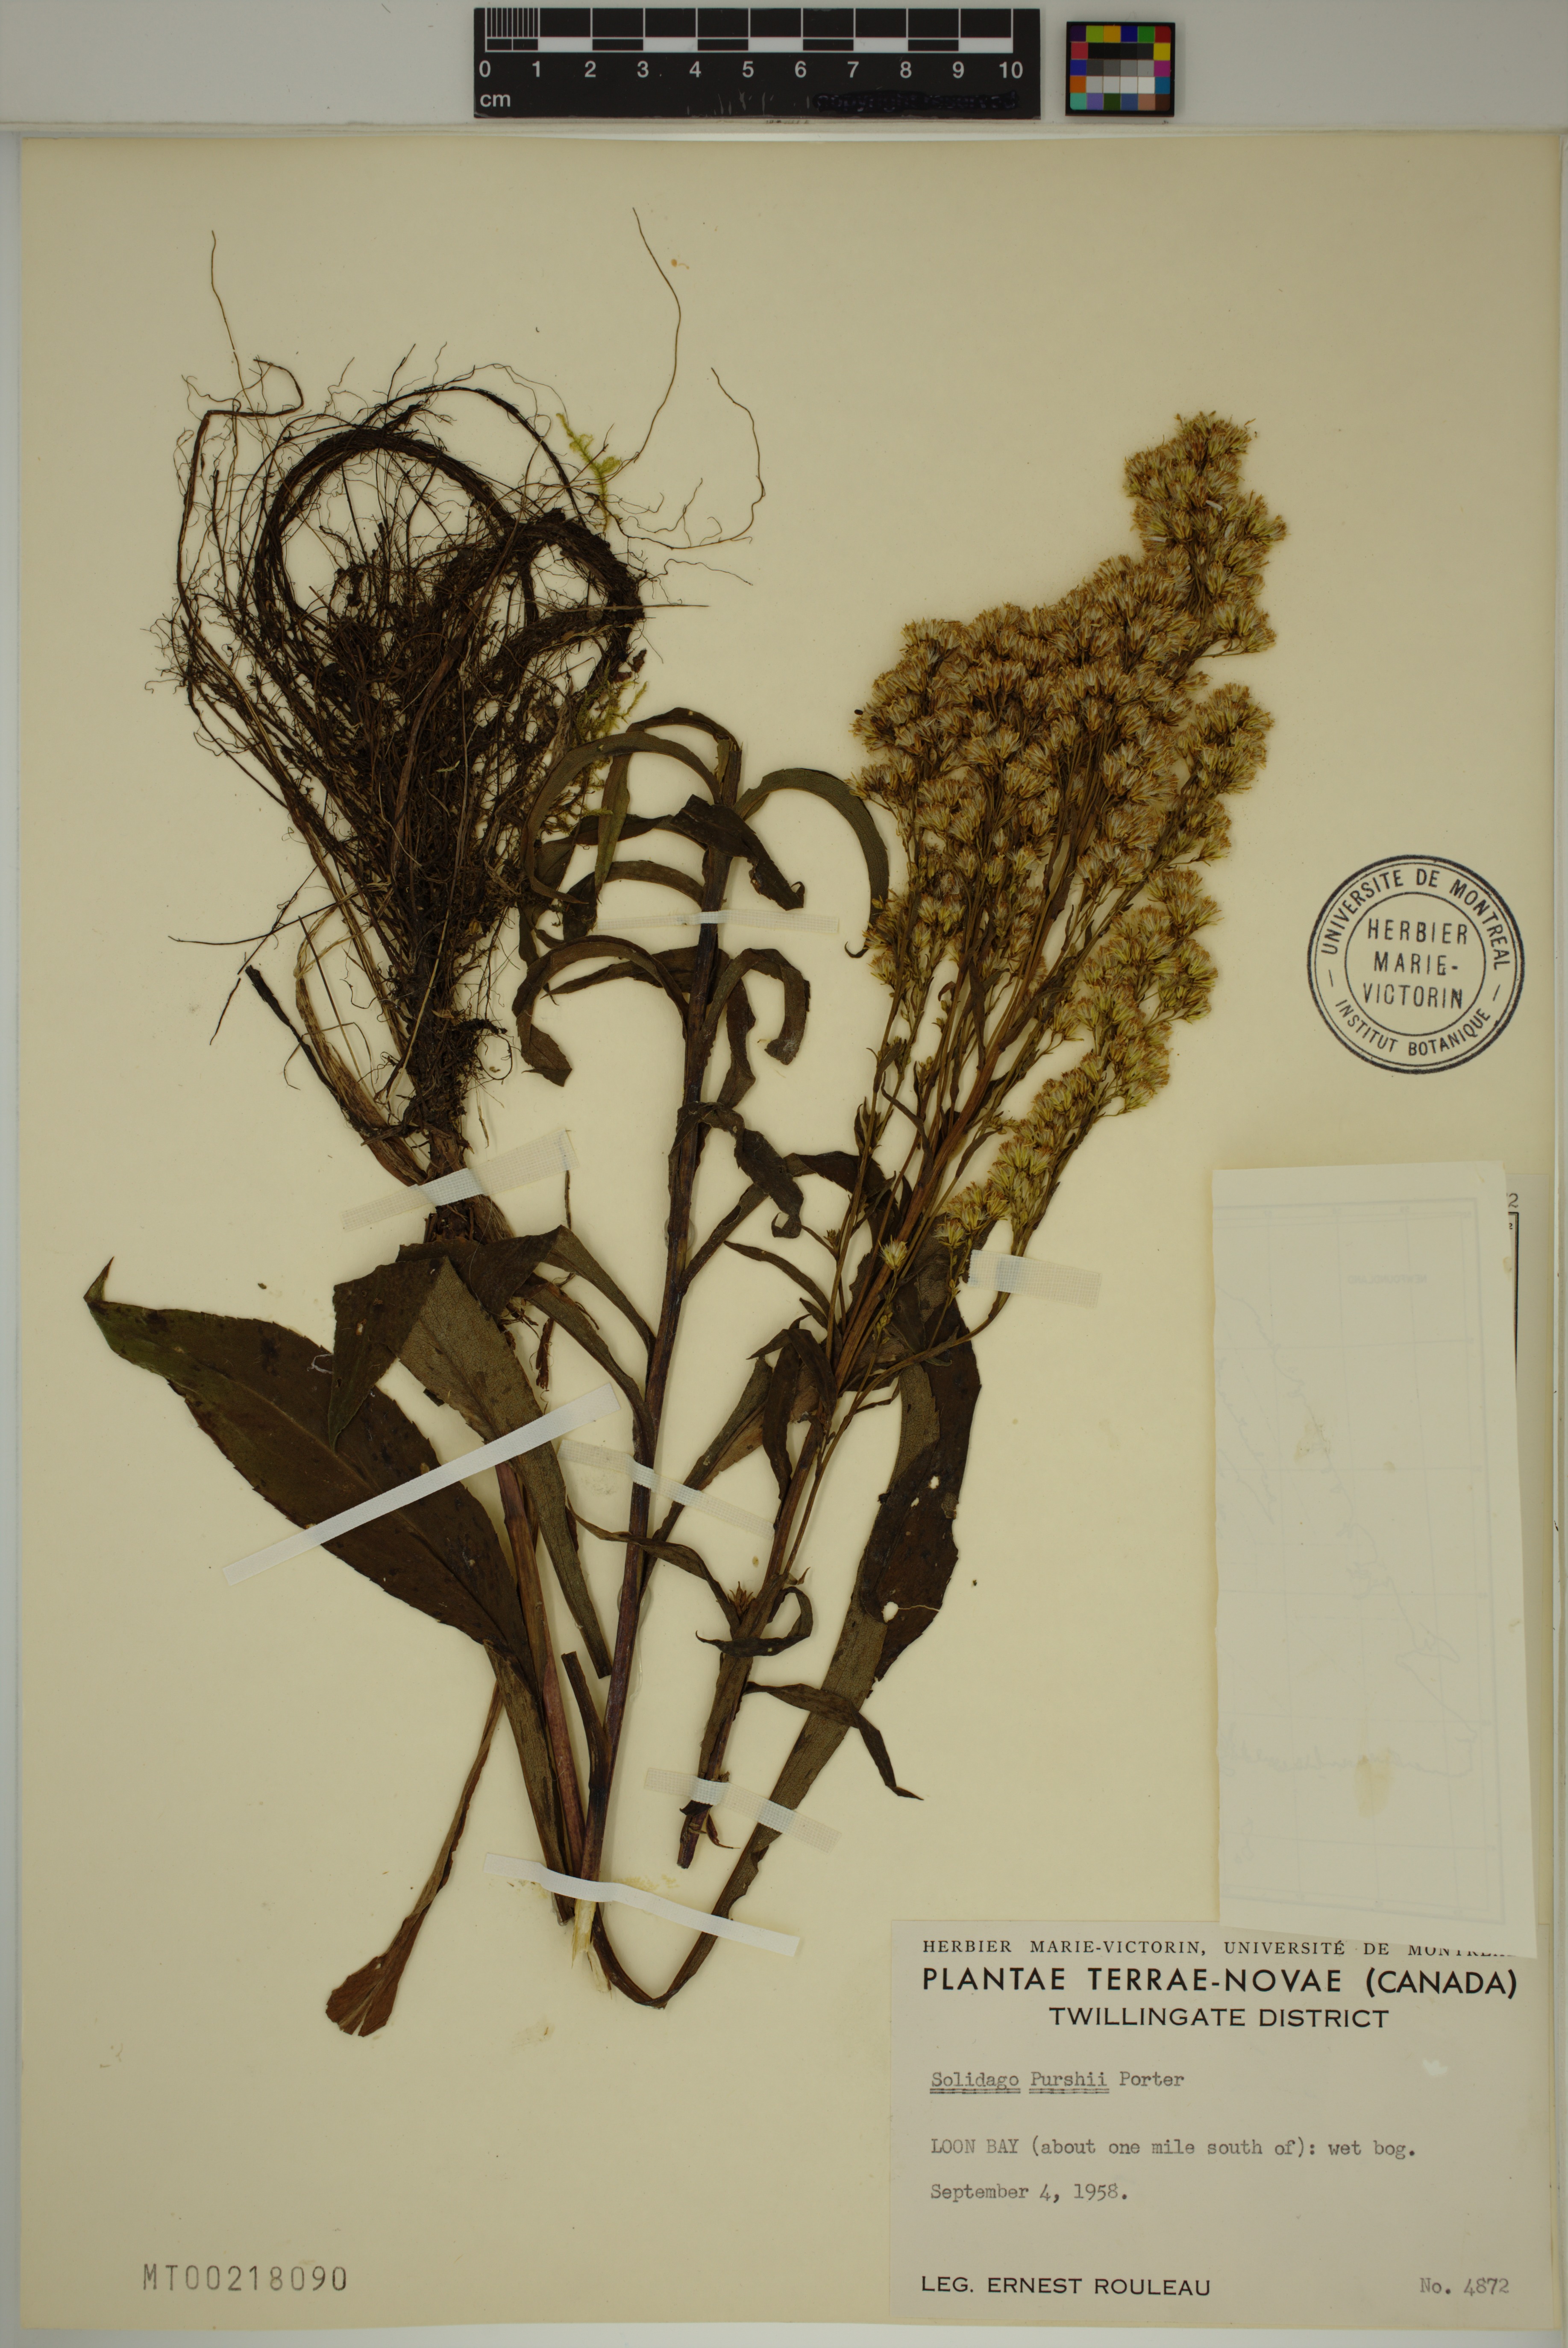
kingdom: Plantae
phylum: Tracheophyta
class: Magnoliopsida
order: Asterales
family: Asteraceae
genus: Solidago
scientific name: Solidago uliginosa
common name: Bog goldenrod
